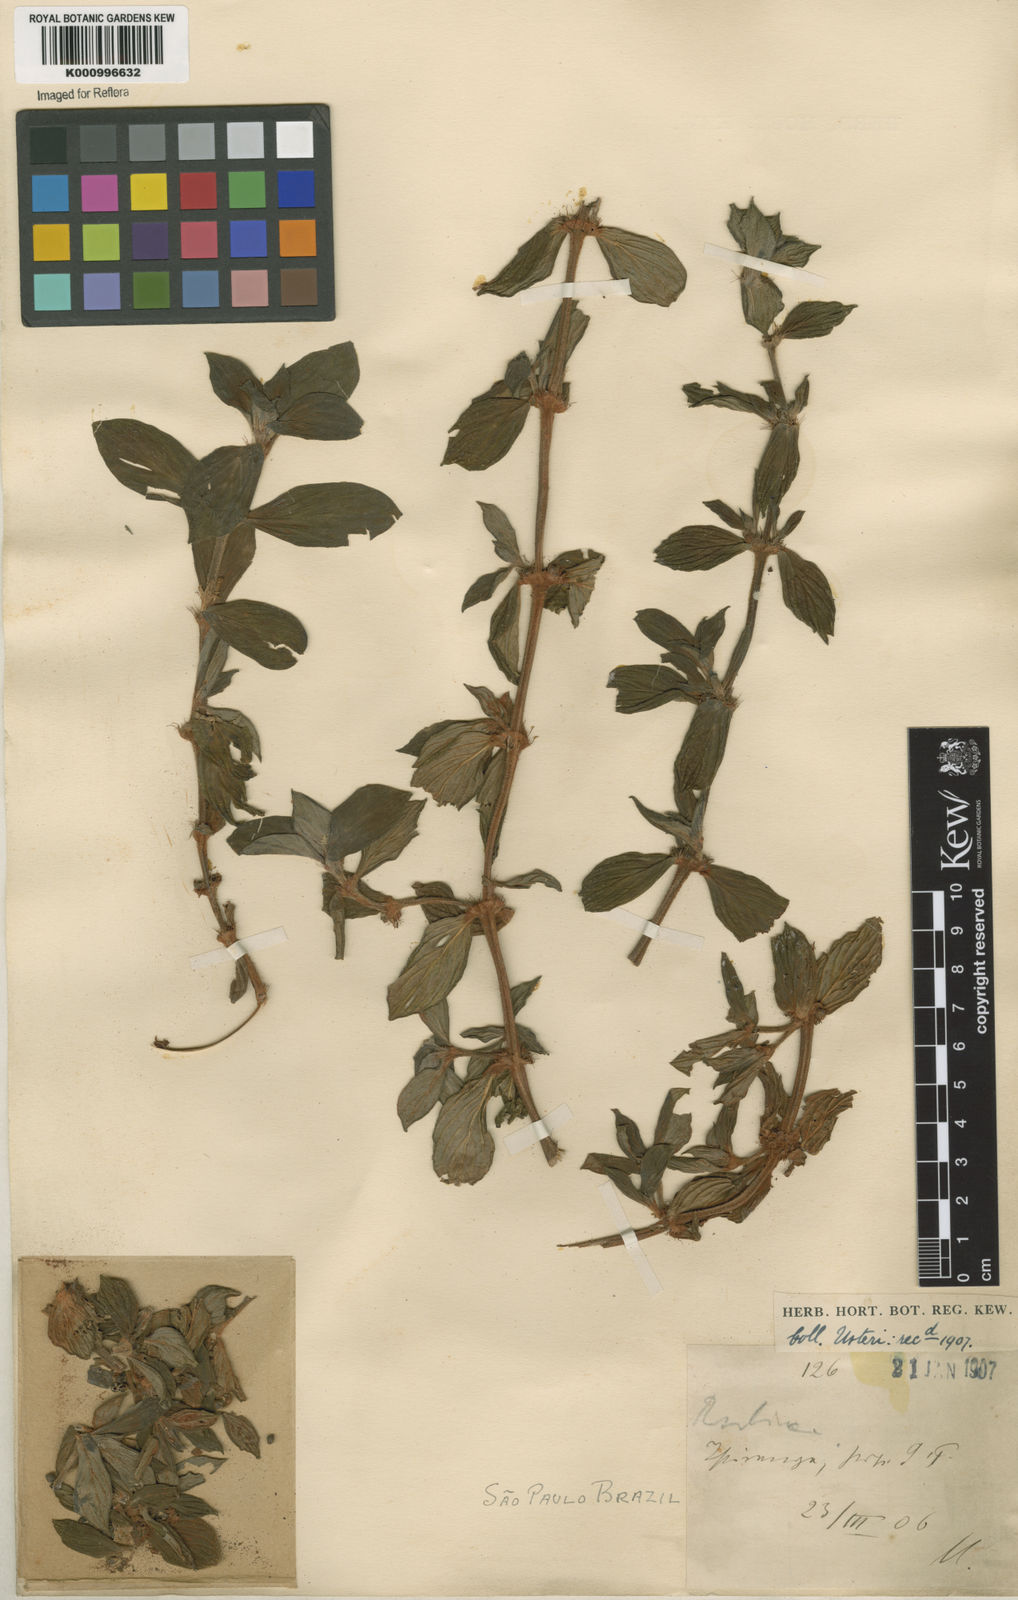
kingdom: Plantae
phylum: Tracheophyta
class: Magnoliopsida
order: Gentianales
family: Rubiaceae
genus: Spermacoce
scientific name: Spermacoce capitata
